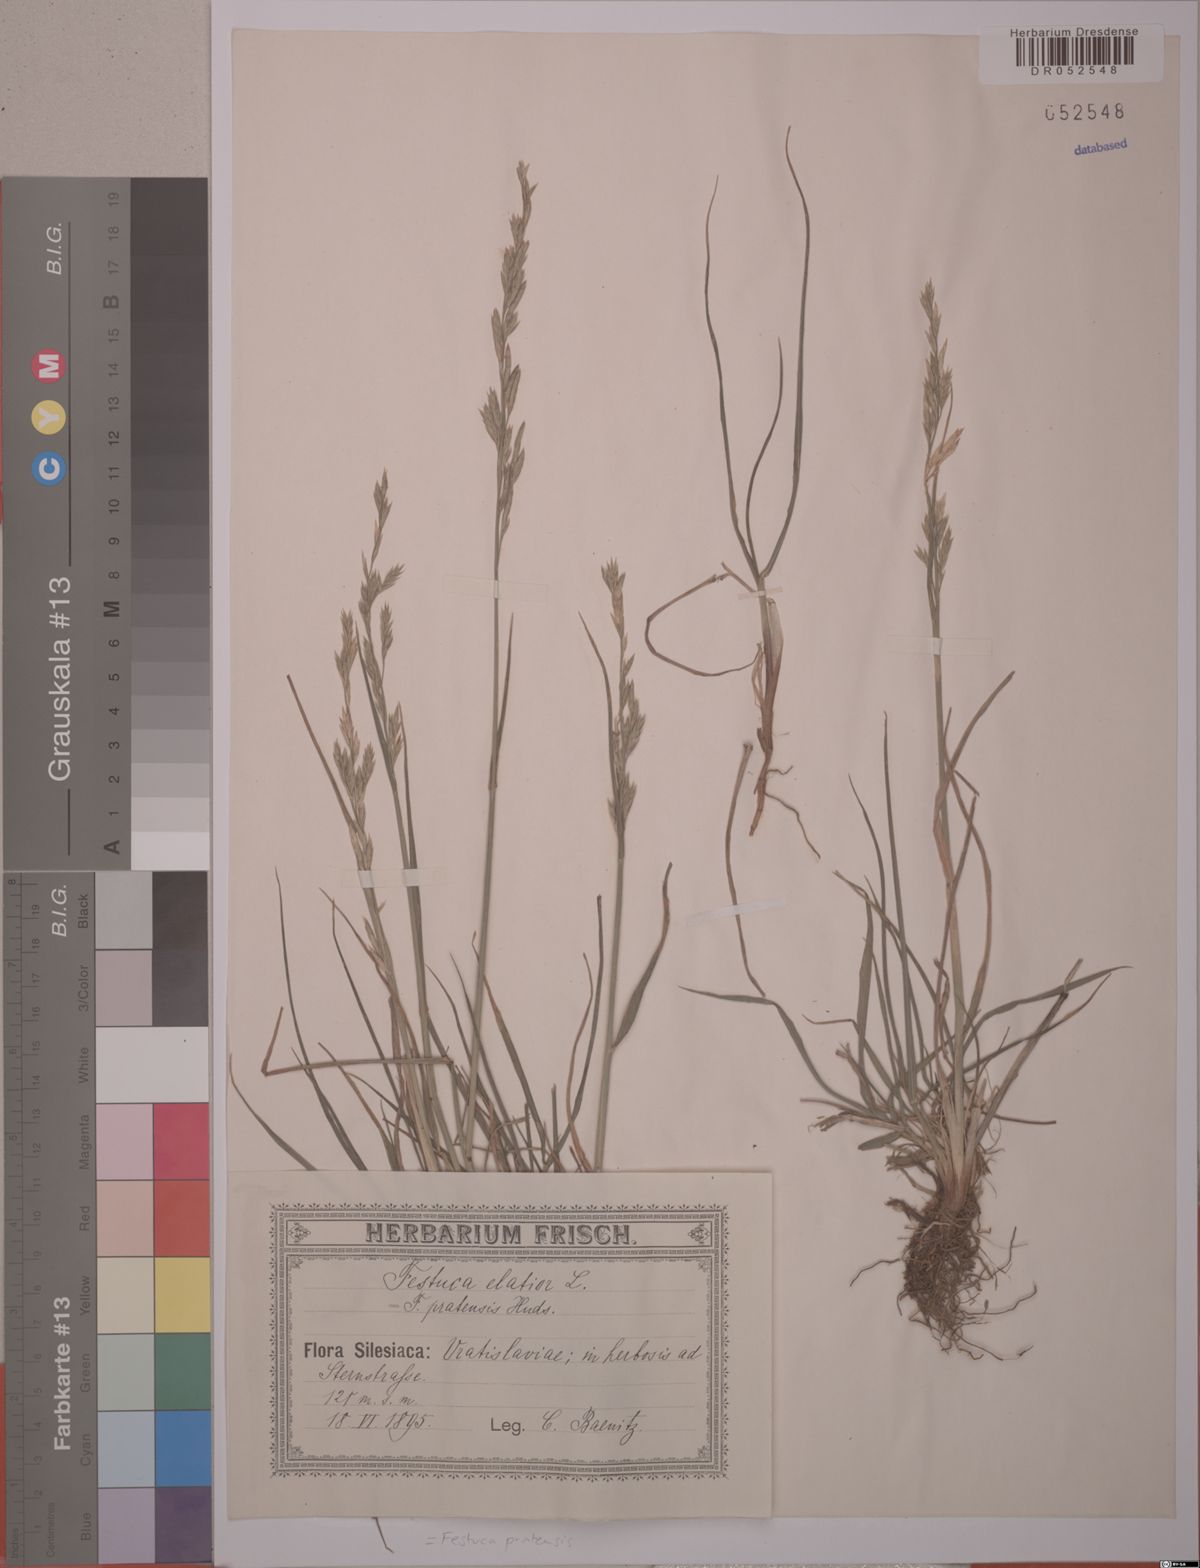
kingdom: Plantae
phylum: Tracheophyta
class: Liliopsida
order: Poales
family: Poaceae
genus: Lolium
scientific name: Lolium pratense
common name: Dover grass
